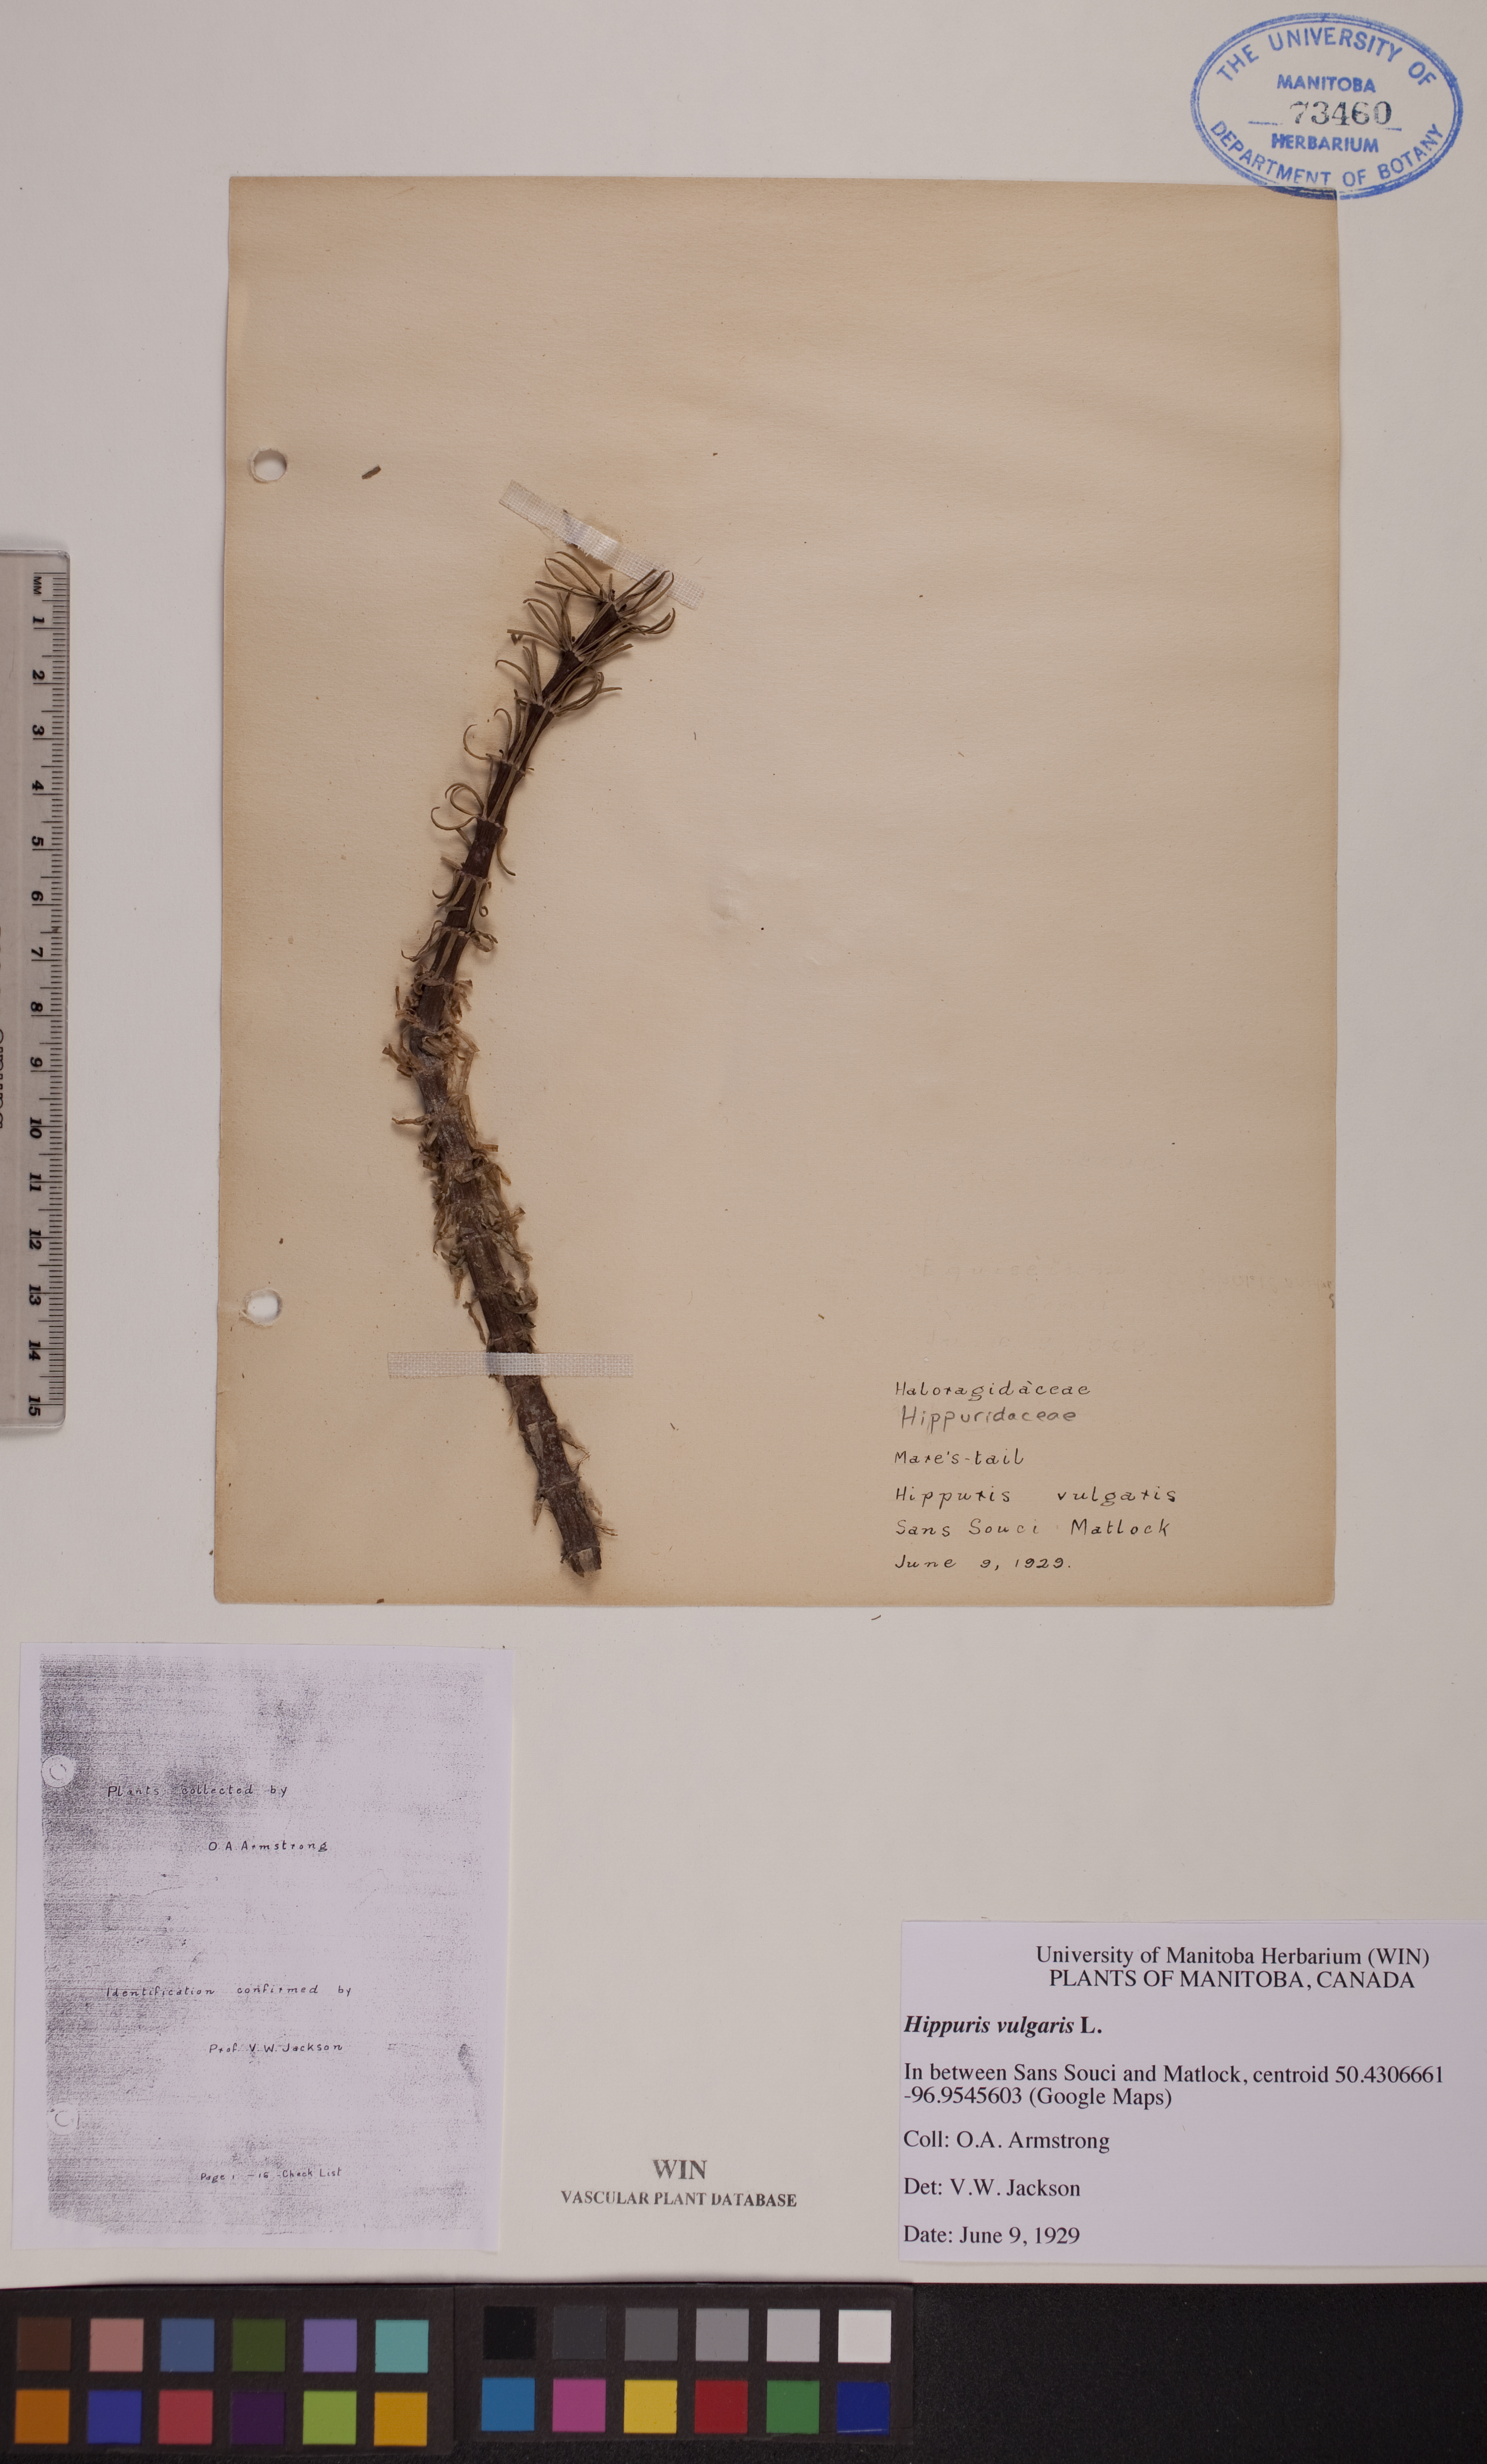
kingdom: Plantae
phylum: Tracheophyta
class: Magnoliopsida
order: Lamiales
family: Plantaginaceae
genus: Hippuris
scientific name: Hippuris vulgaris
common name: Mare's-tail
